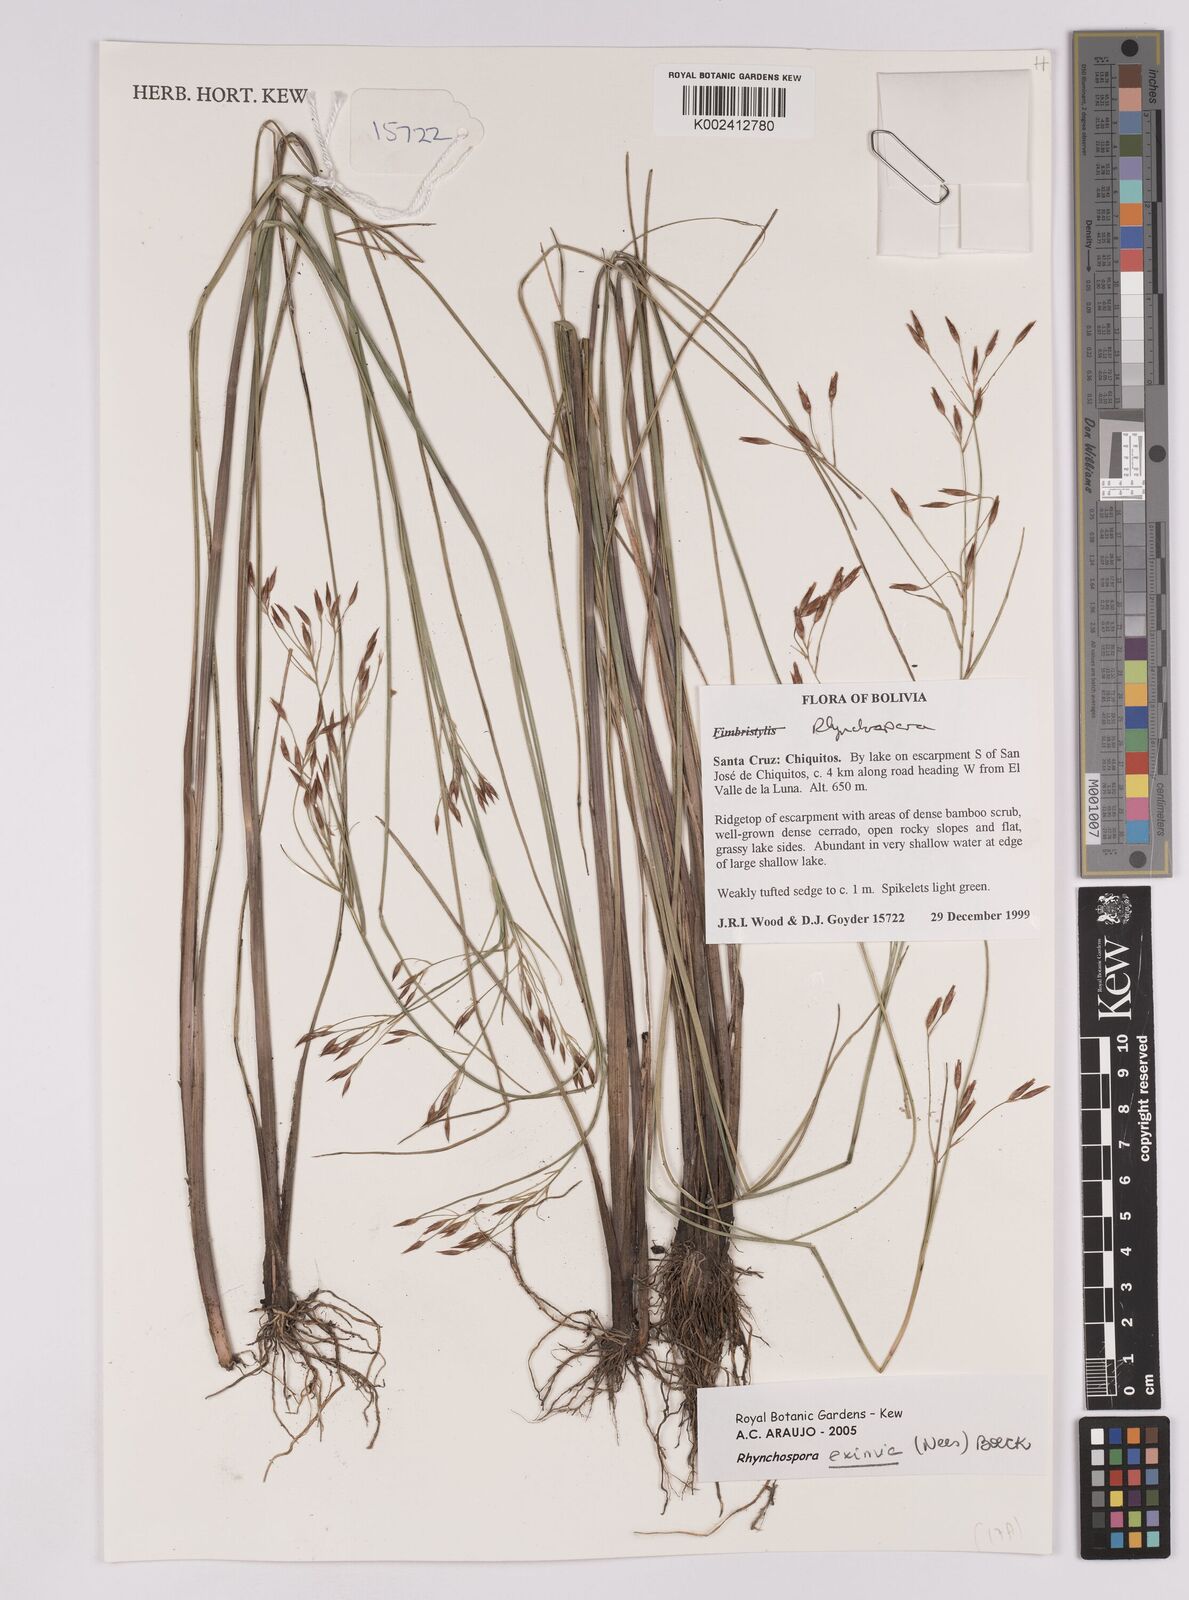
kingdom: Plantae
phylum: Tracheophyta
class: Liliopsida
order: Poales
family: Cyperaceae
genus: Rhynchospora
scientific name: Rhynchospora
